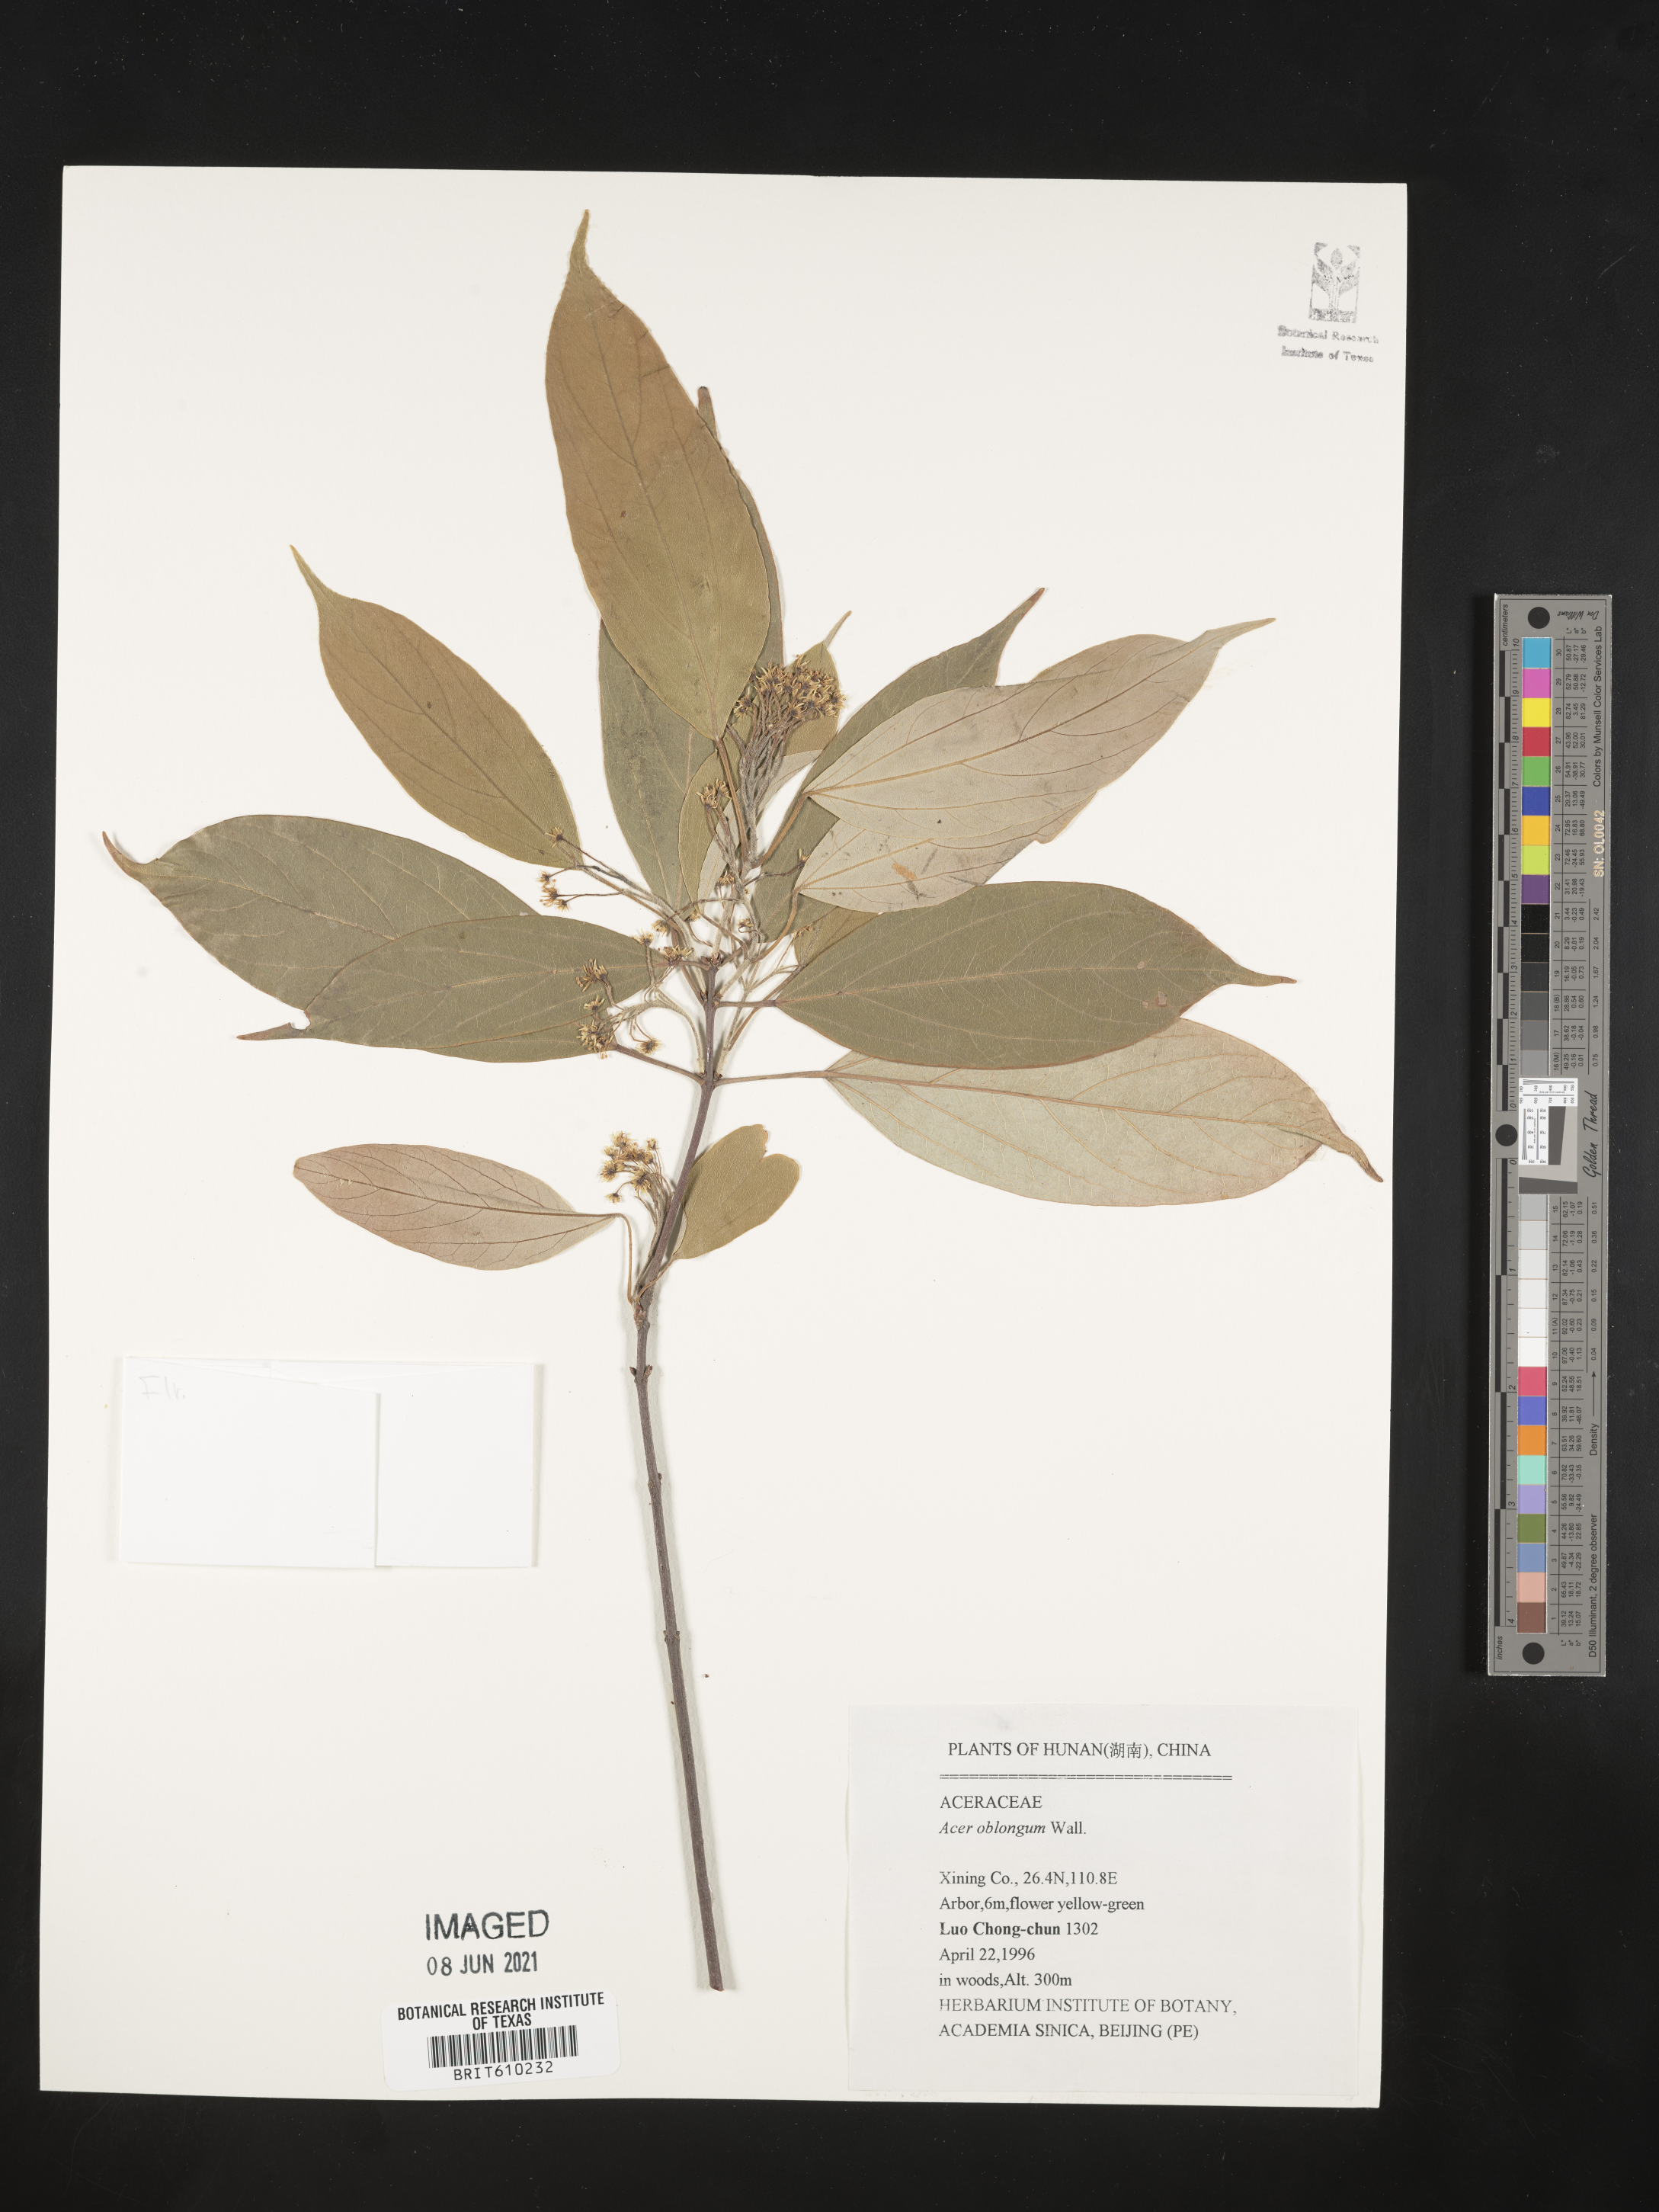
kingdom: Plantae
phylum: Tracheophyta
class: Magnoliopsida
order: Sapindales
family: Sapindaceae
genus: Acer
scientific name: Acer oblongum
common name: Himalayan maple
